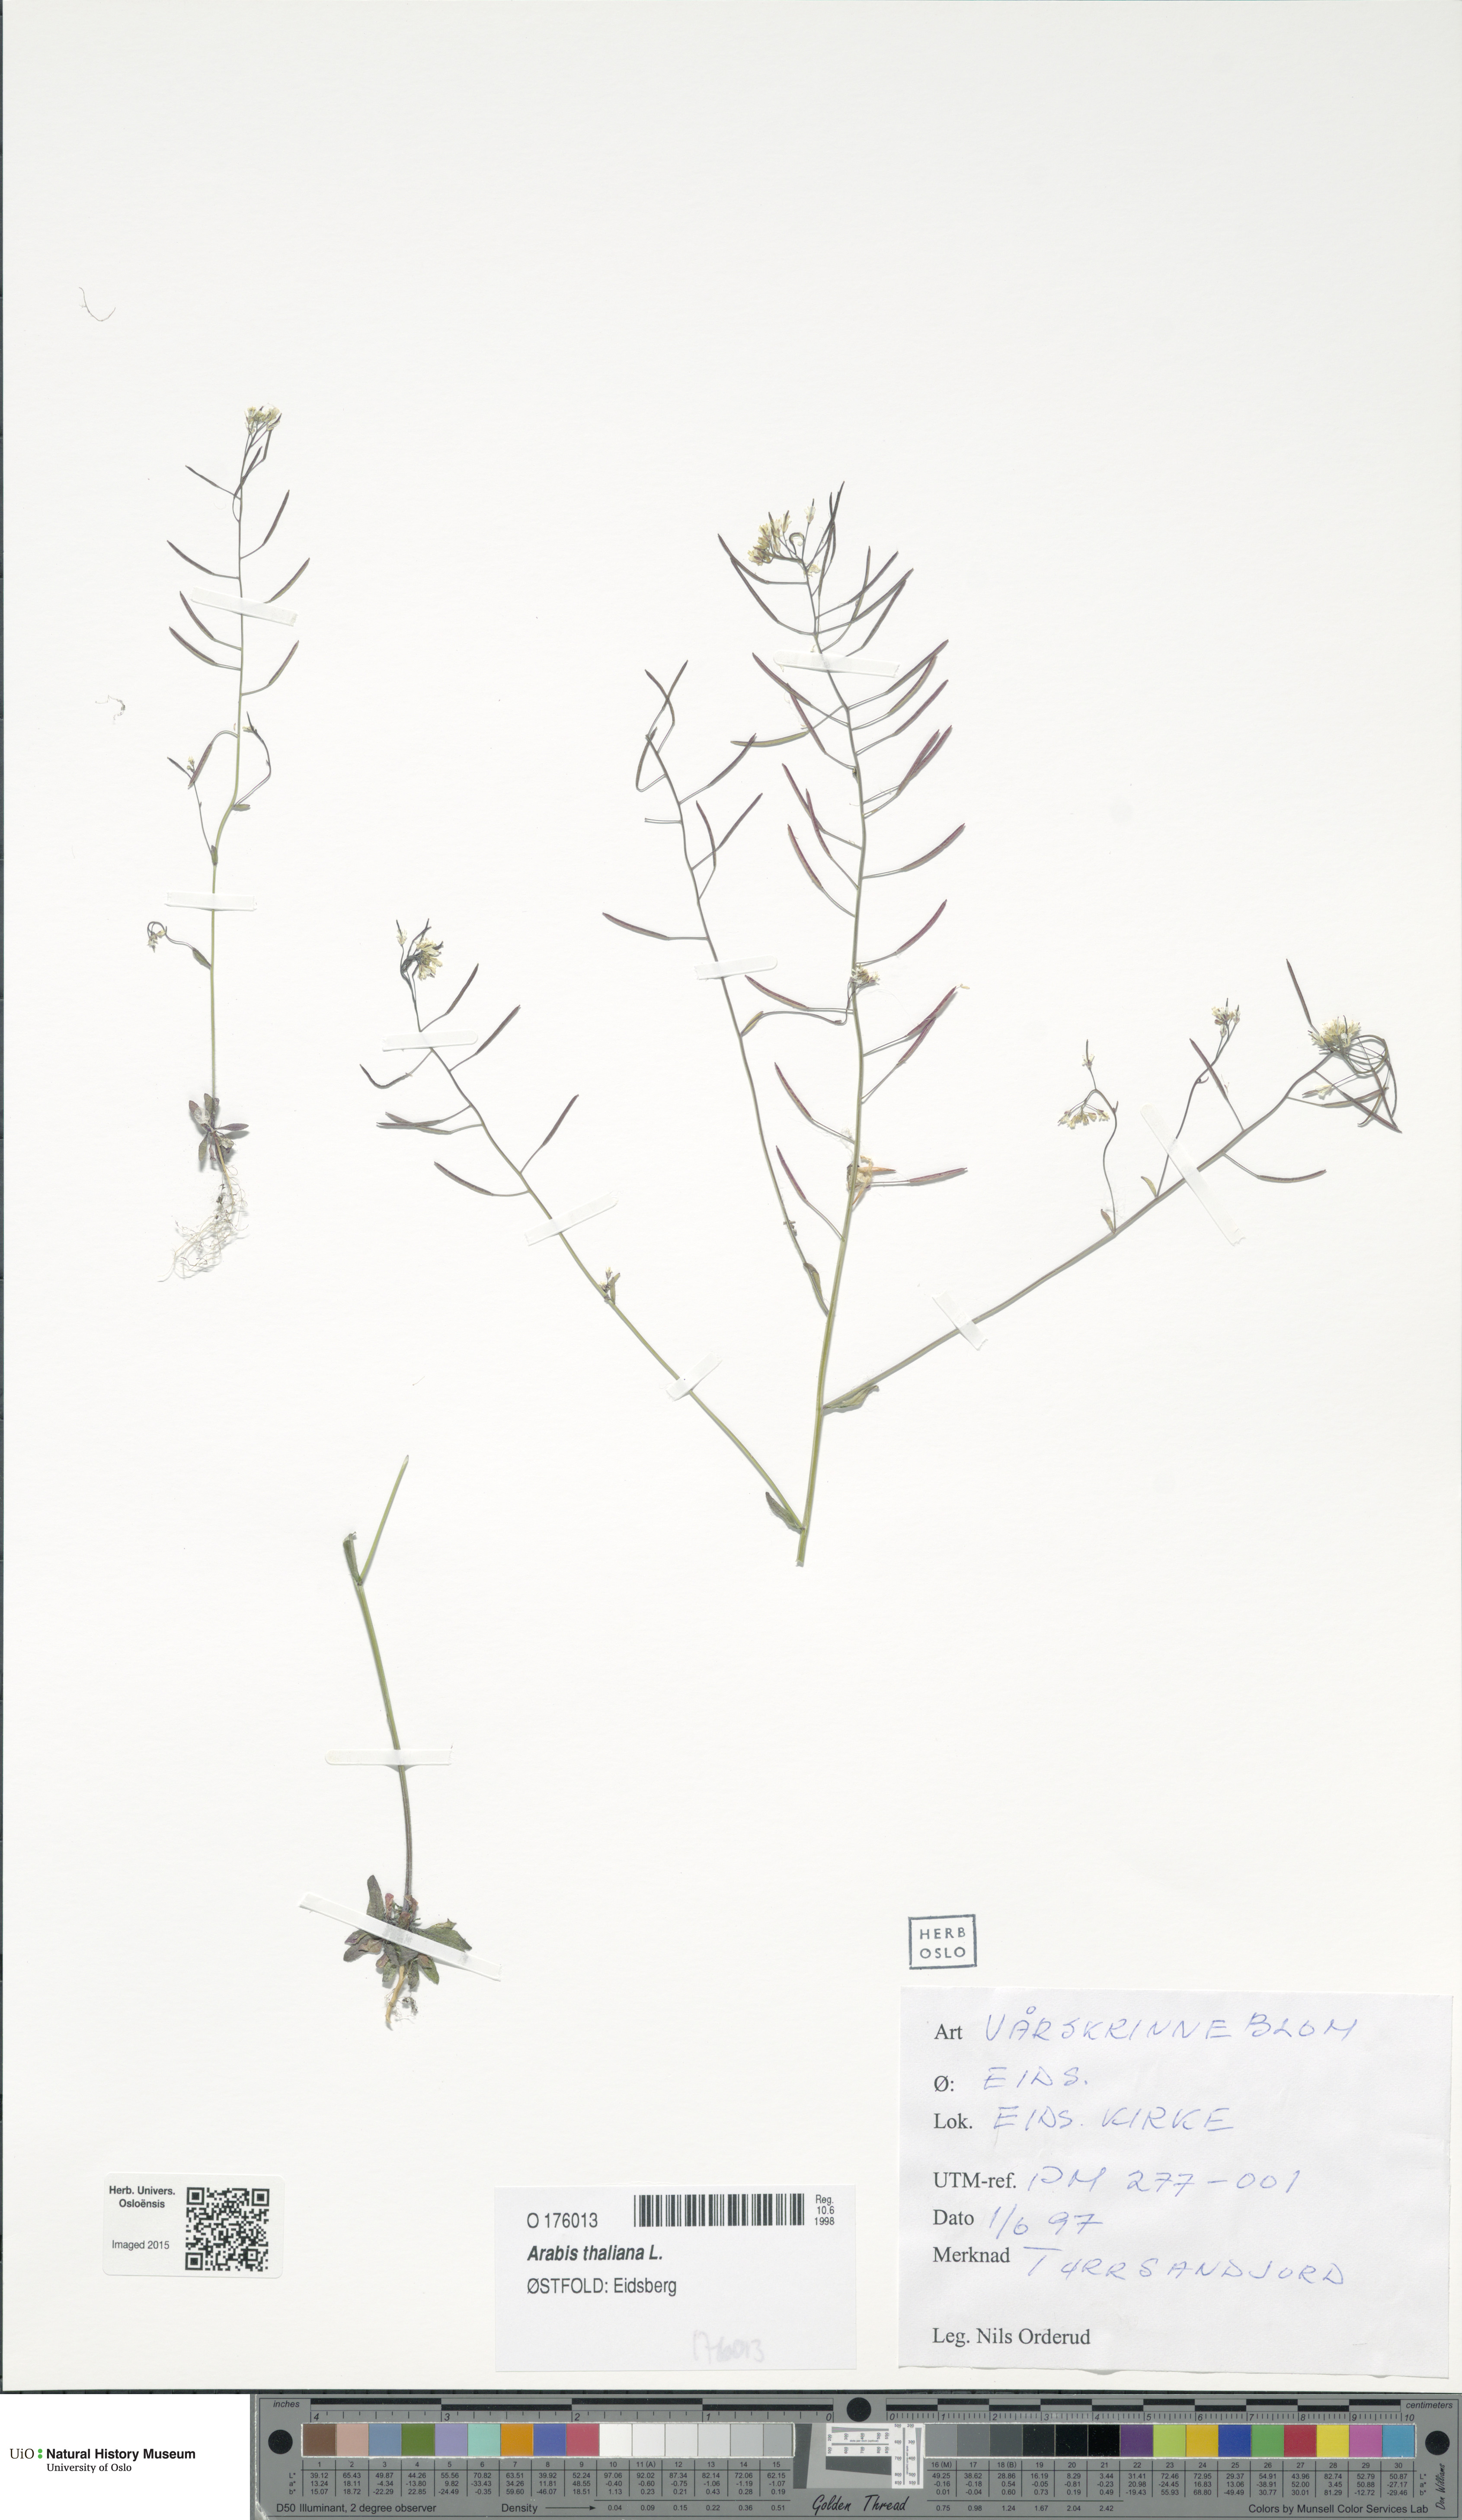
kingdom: Plantae
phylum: Tracheophyta
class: Magnoliopsida
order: Brassicales
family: Brassicaceae
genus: Arabidopsis
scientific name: Arabidopsis thaliana
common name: Thale cress
